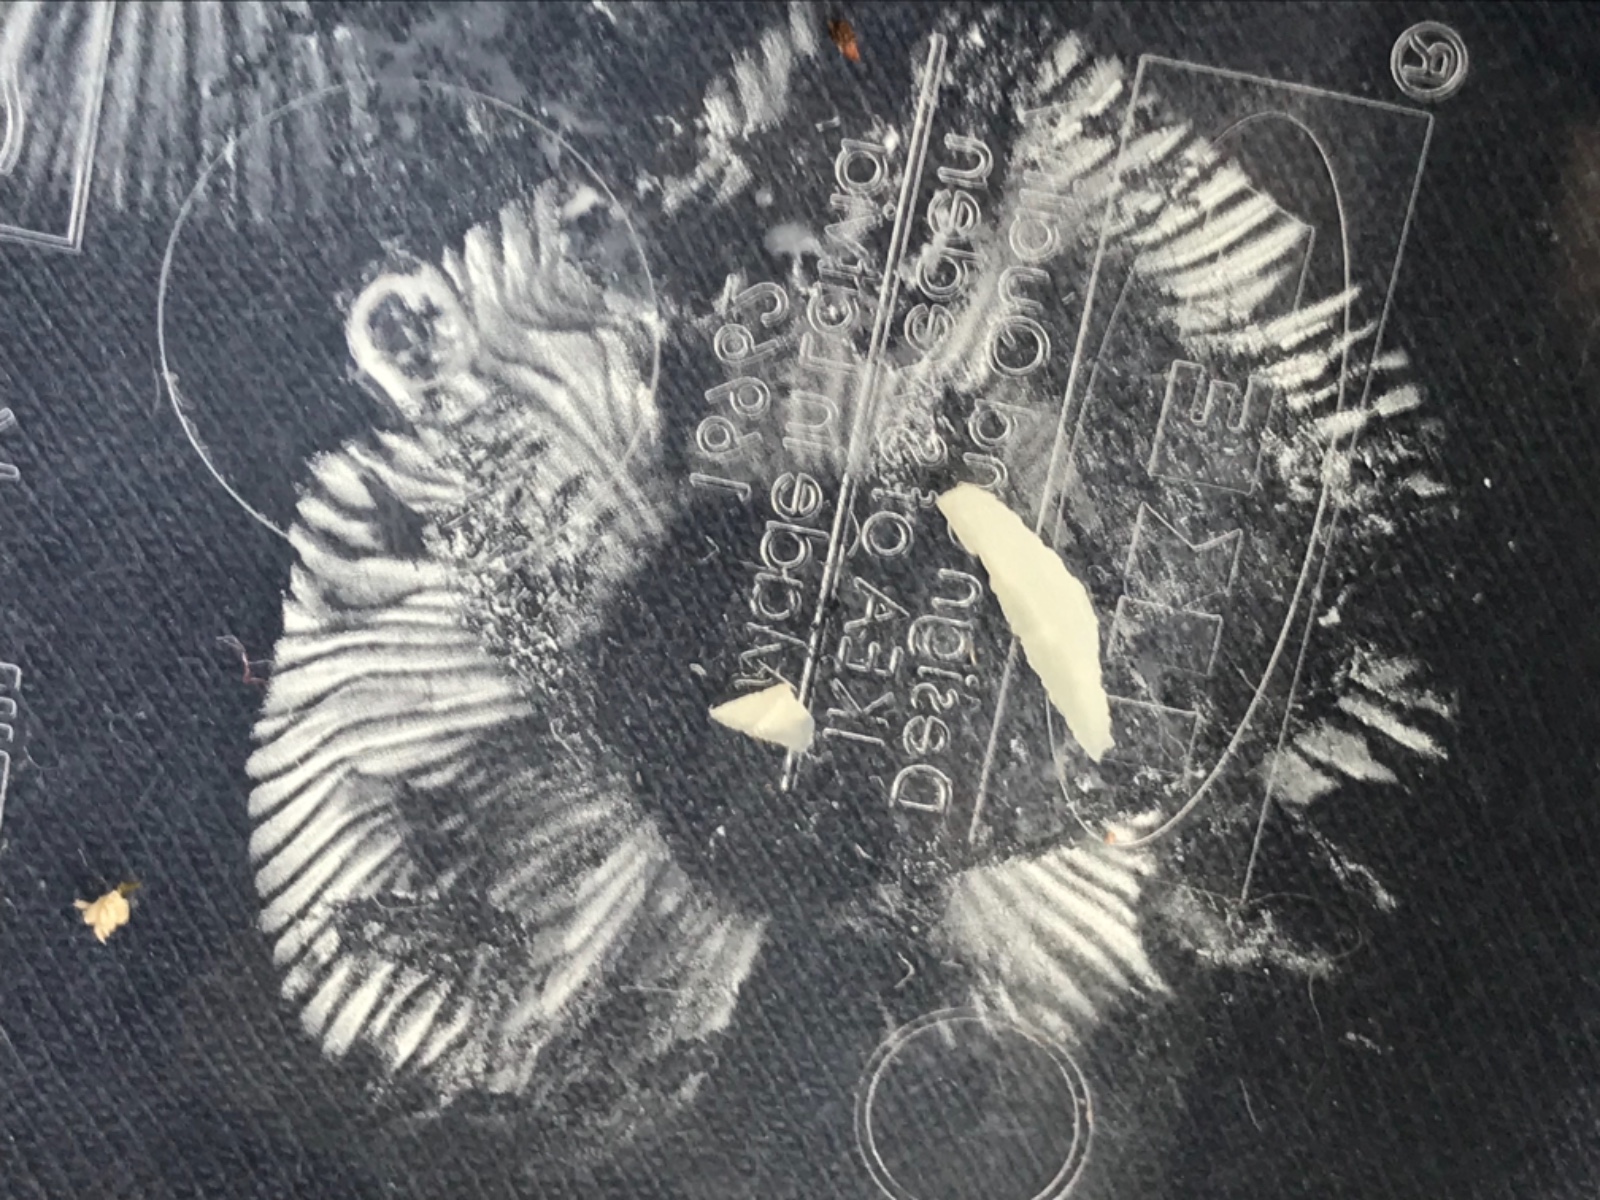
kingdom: Fungi
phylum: Basidiomycota
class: Agaricomycetes
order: Russulales
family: Russulaceae
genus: Russula
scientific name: Russula betularum
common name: bleg gift-skørhat
